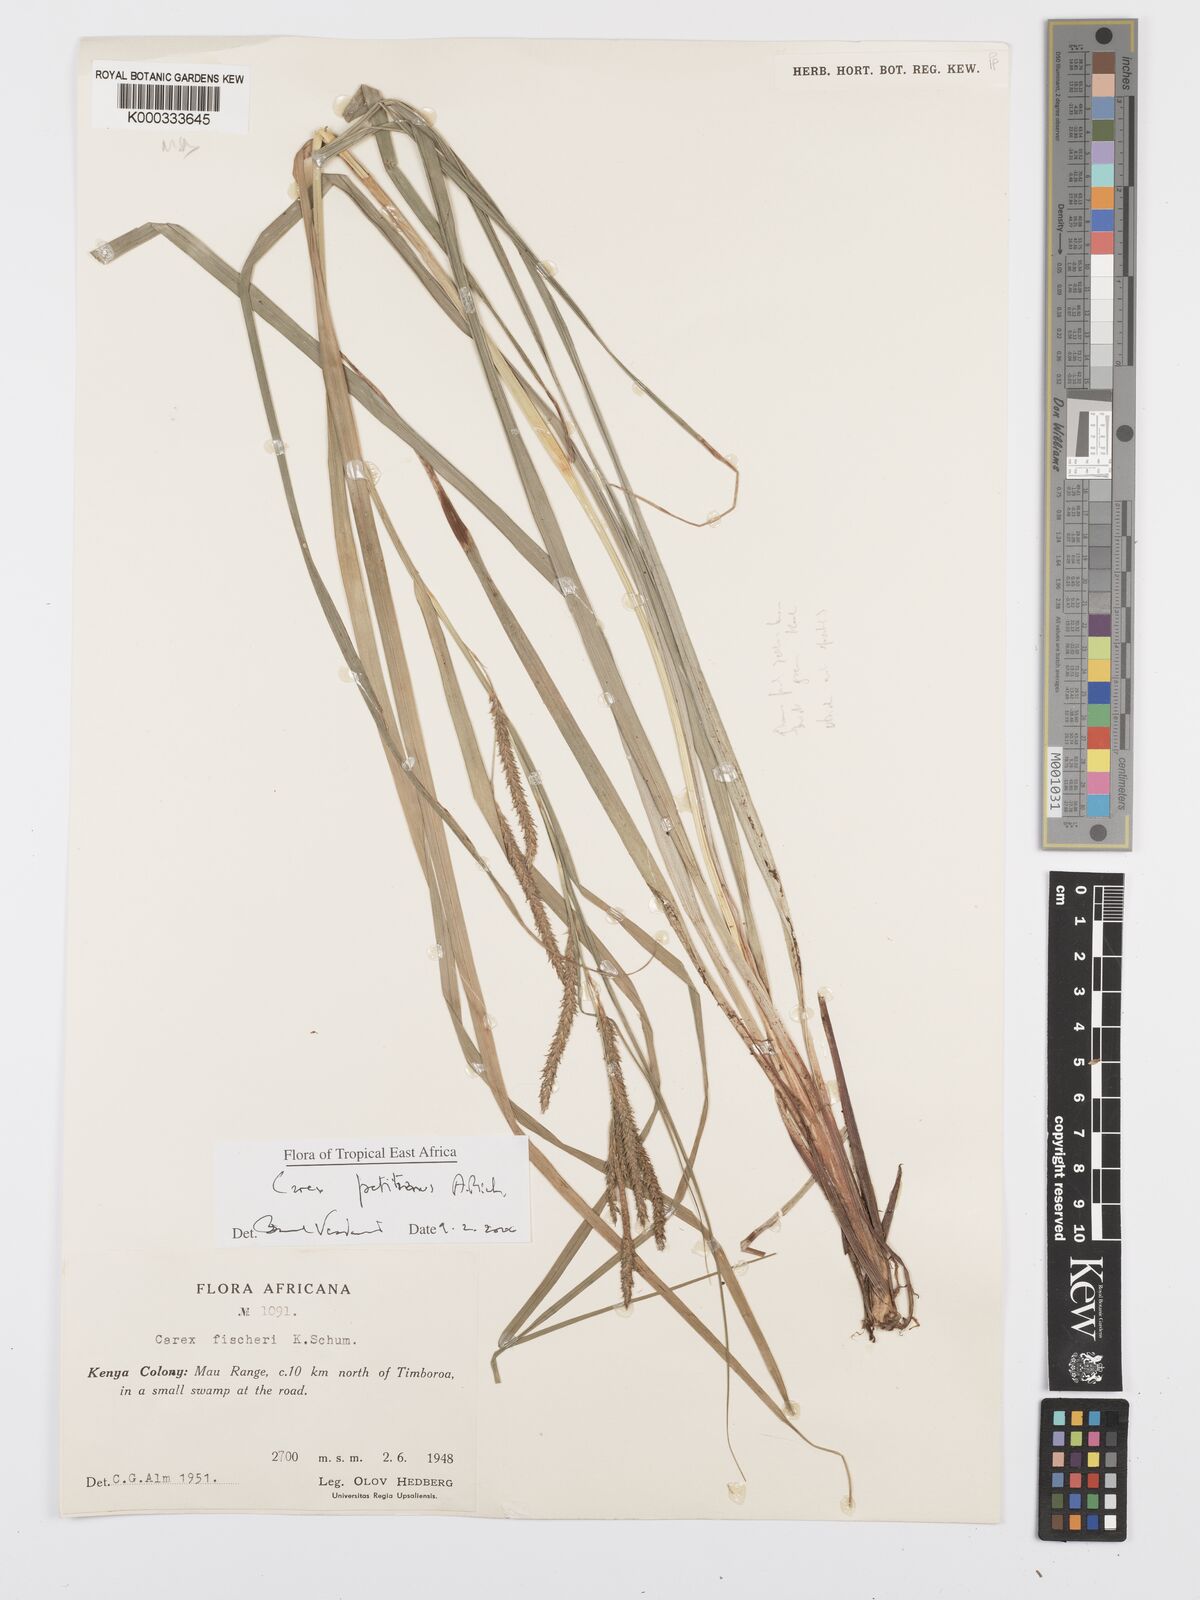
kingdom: Plantae
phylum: Tracheophyta
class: Liliopsida
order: Poales
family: Cyperaceae
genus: Carex
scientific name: Carex petitiana
